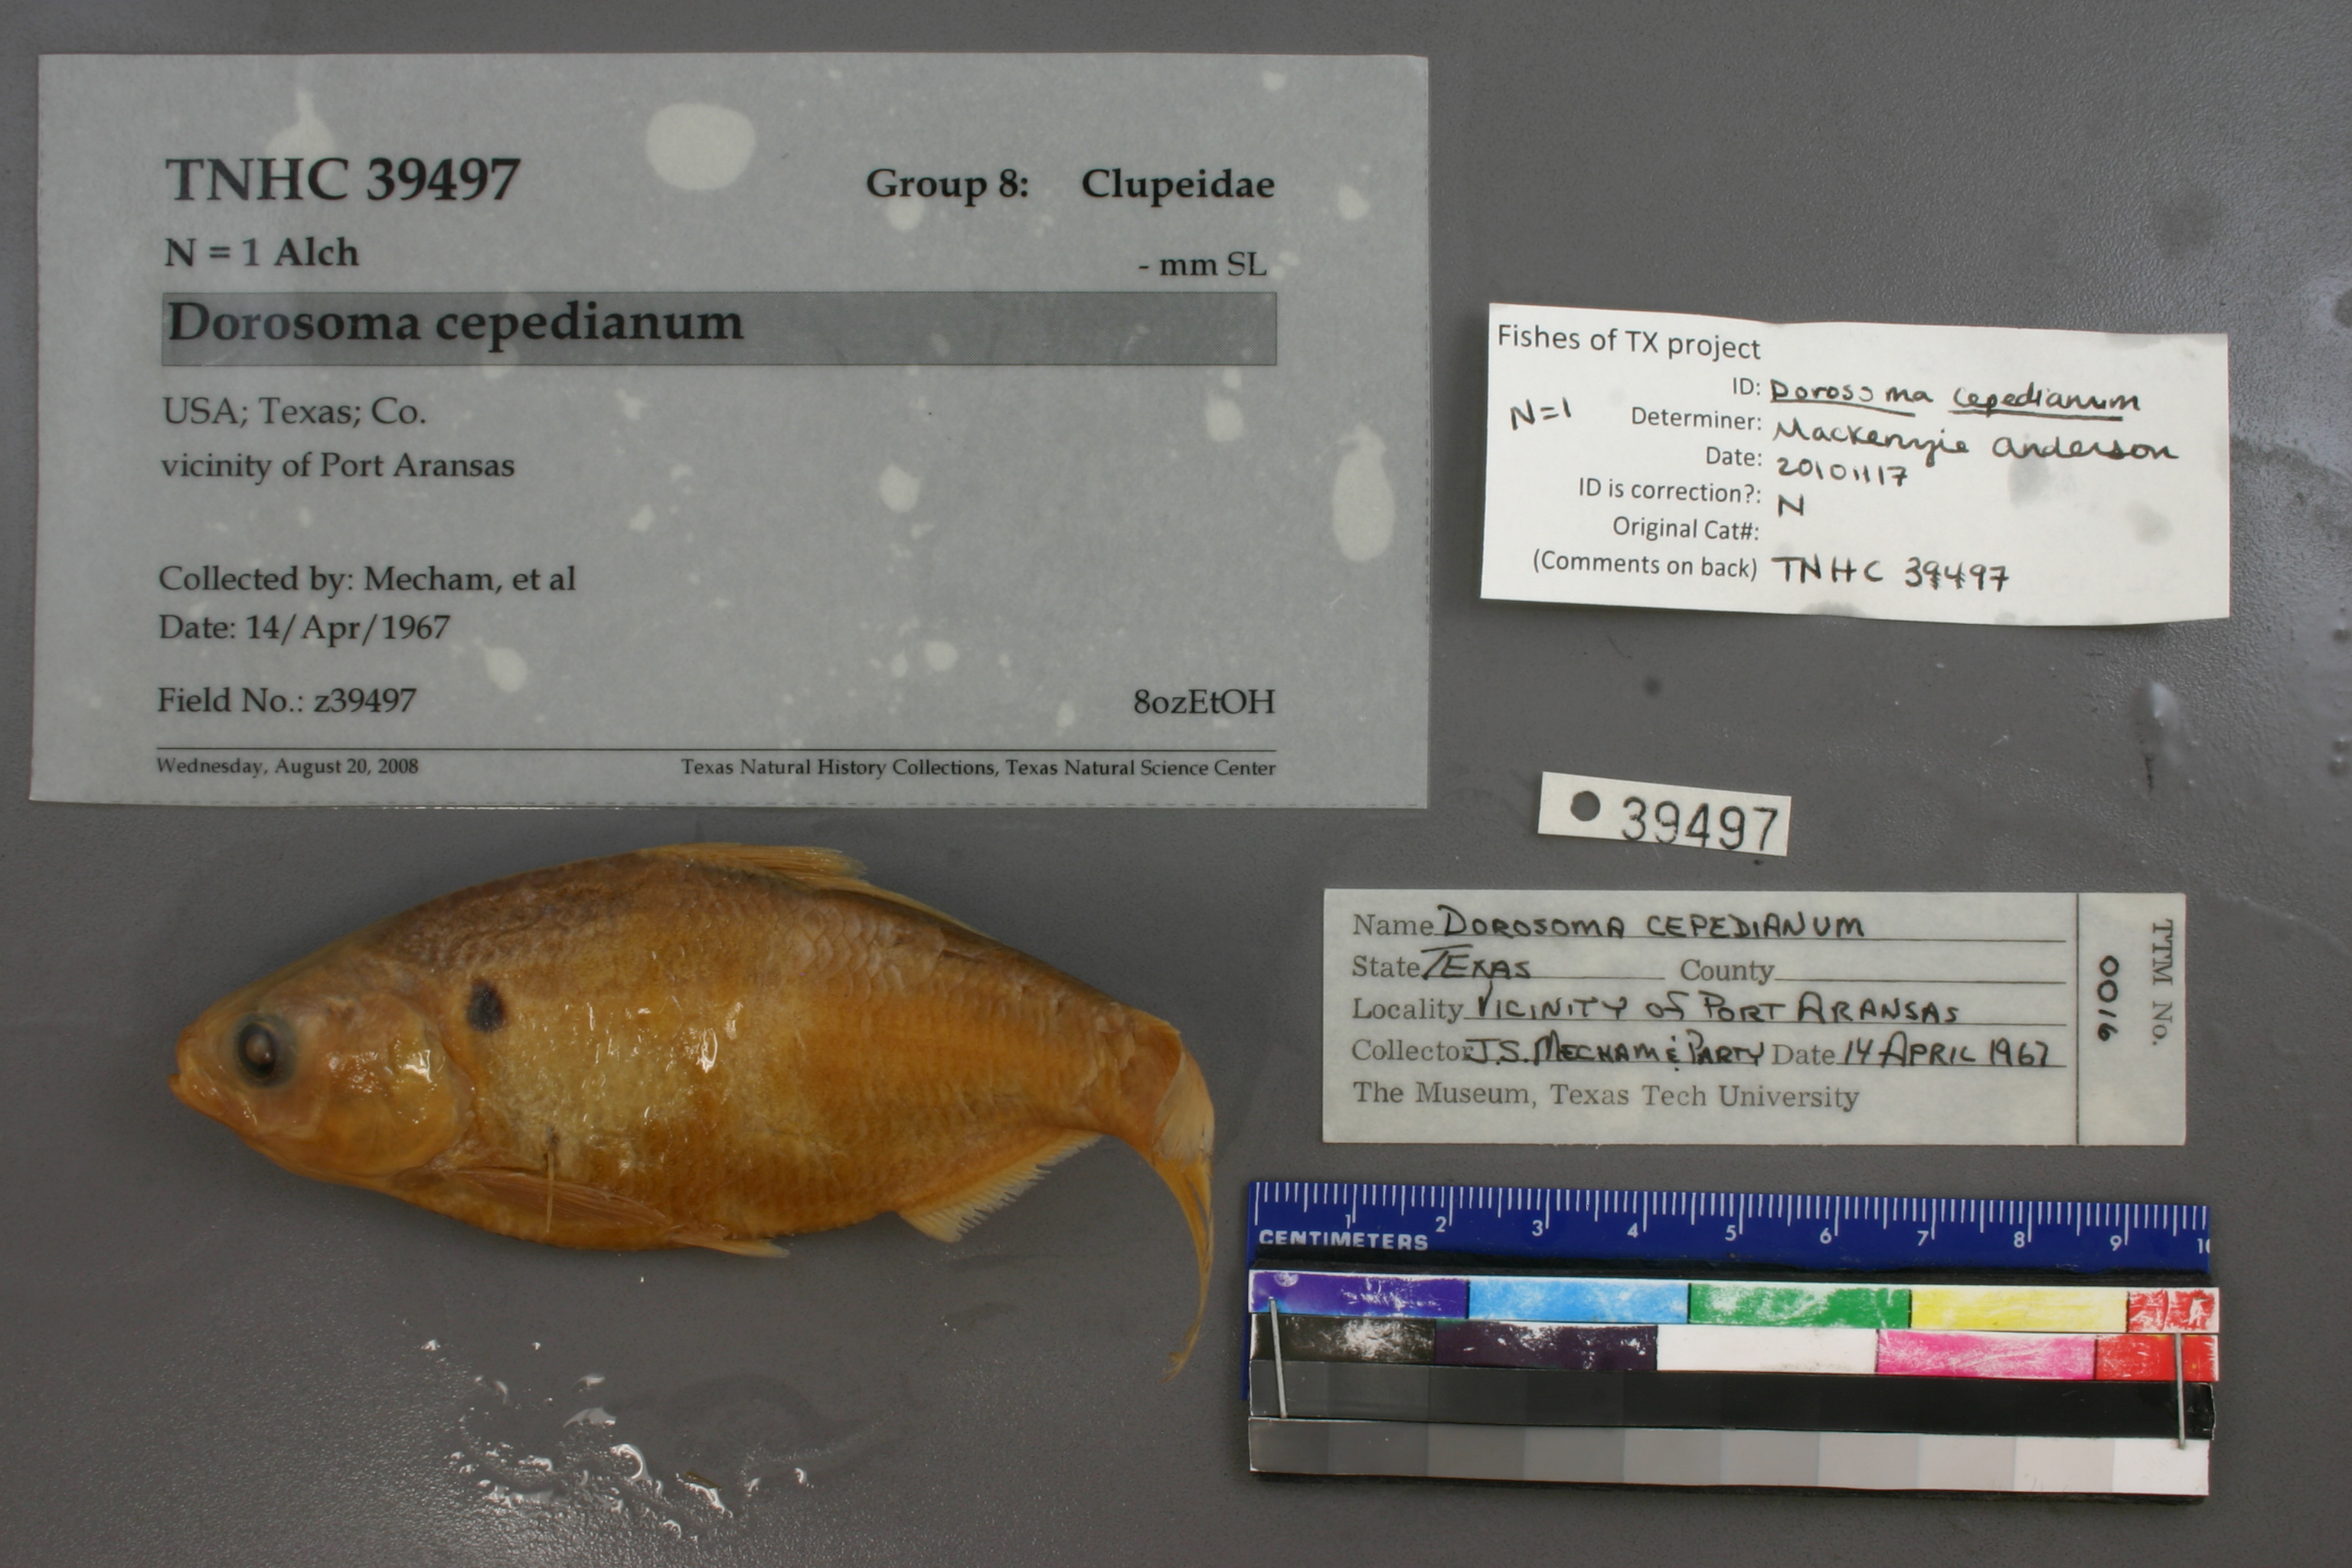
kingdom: Animalia
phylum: Chordata
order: Clupeiformes
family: Clupeidae
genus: Dorosoma
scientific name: Dorosoma cepedianum
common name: Gizzard shad
